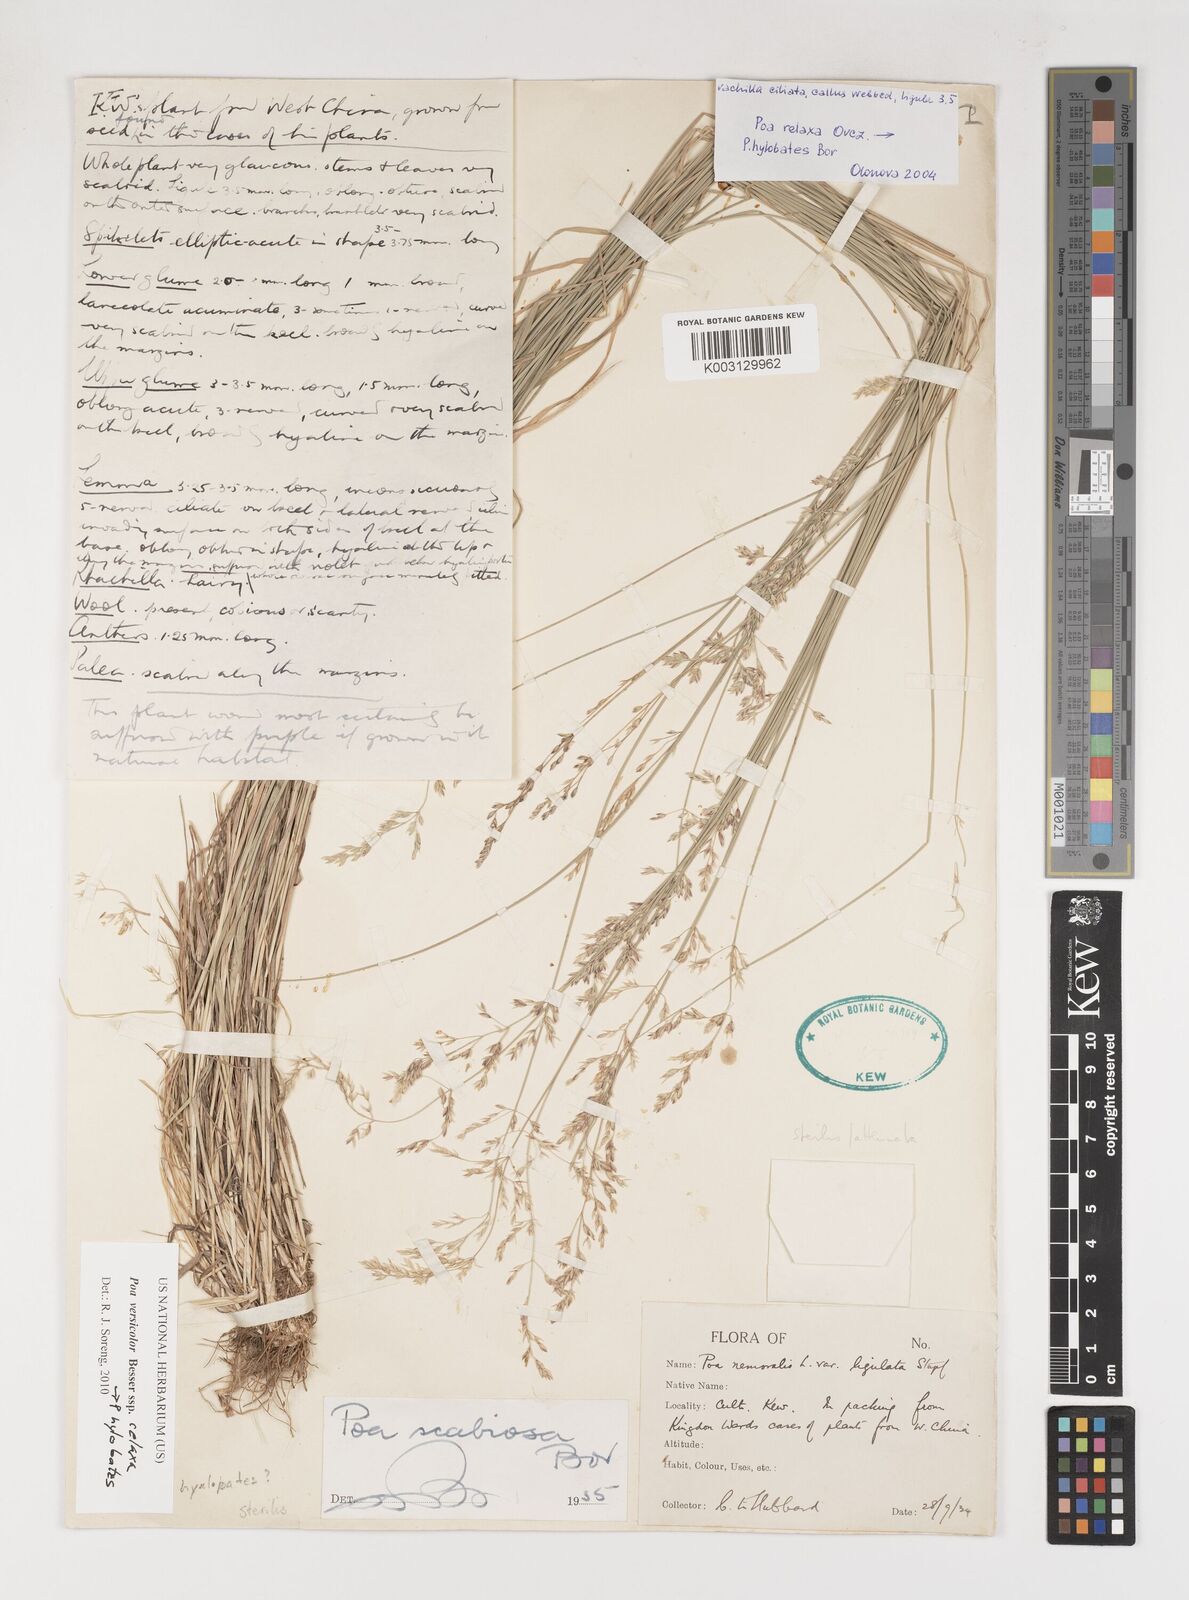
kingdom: Plantae
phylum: Tracheophyta
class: Liliopsida
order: Poales
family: Poaceae
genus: Poa
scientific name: Poa versicolor
